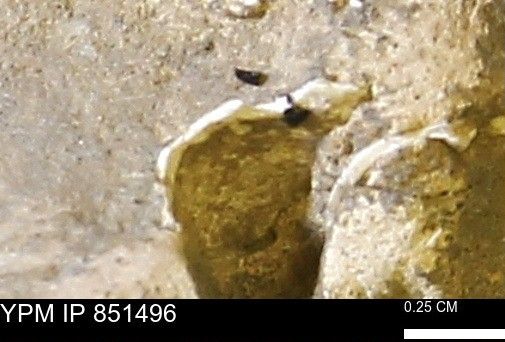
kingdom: Animalia
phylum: Mollusca
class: Bivalvia
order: Arcida
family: Limopsidae
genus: Limopsis
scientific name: Limopsis
